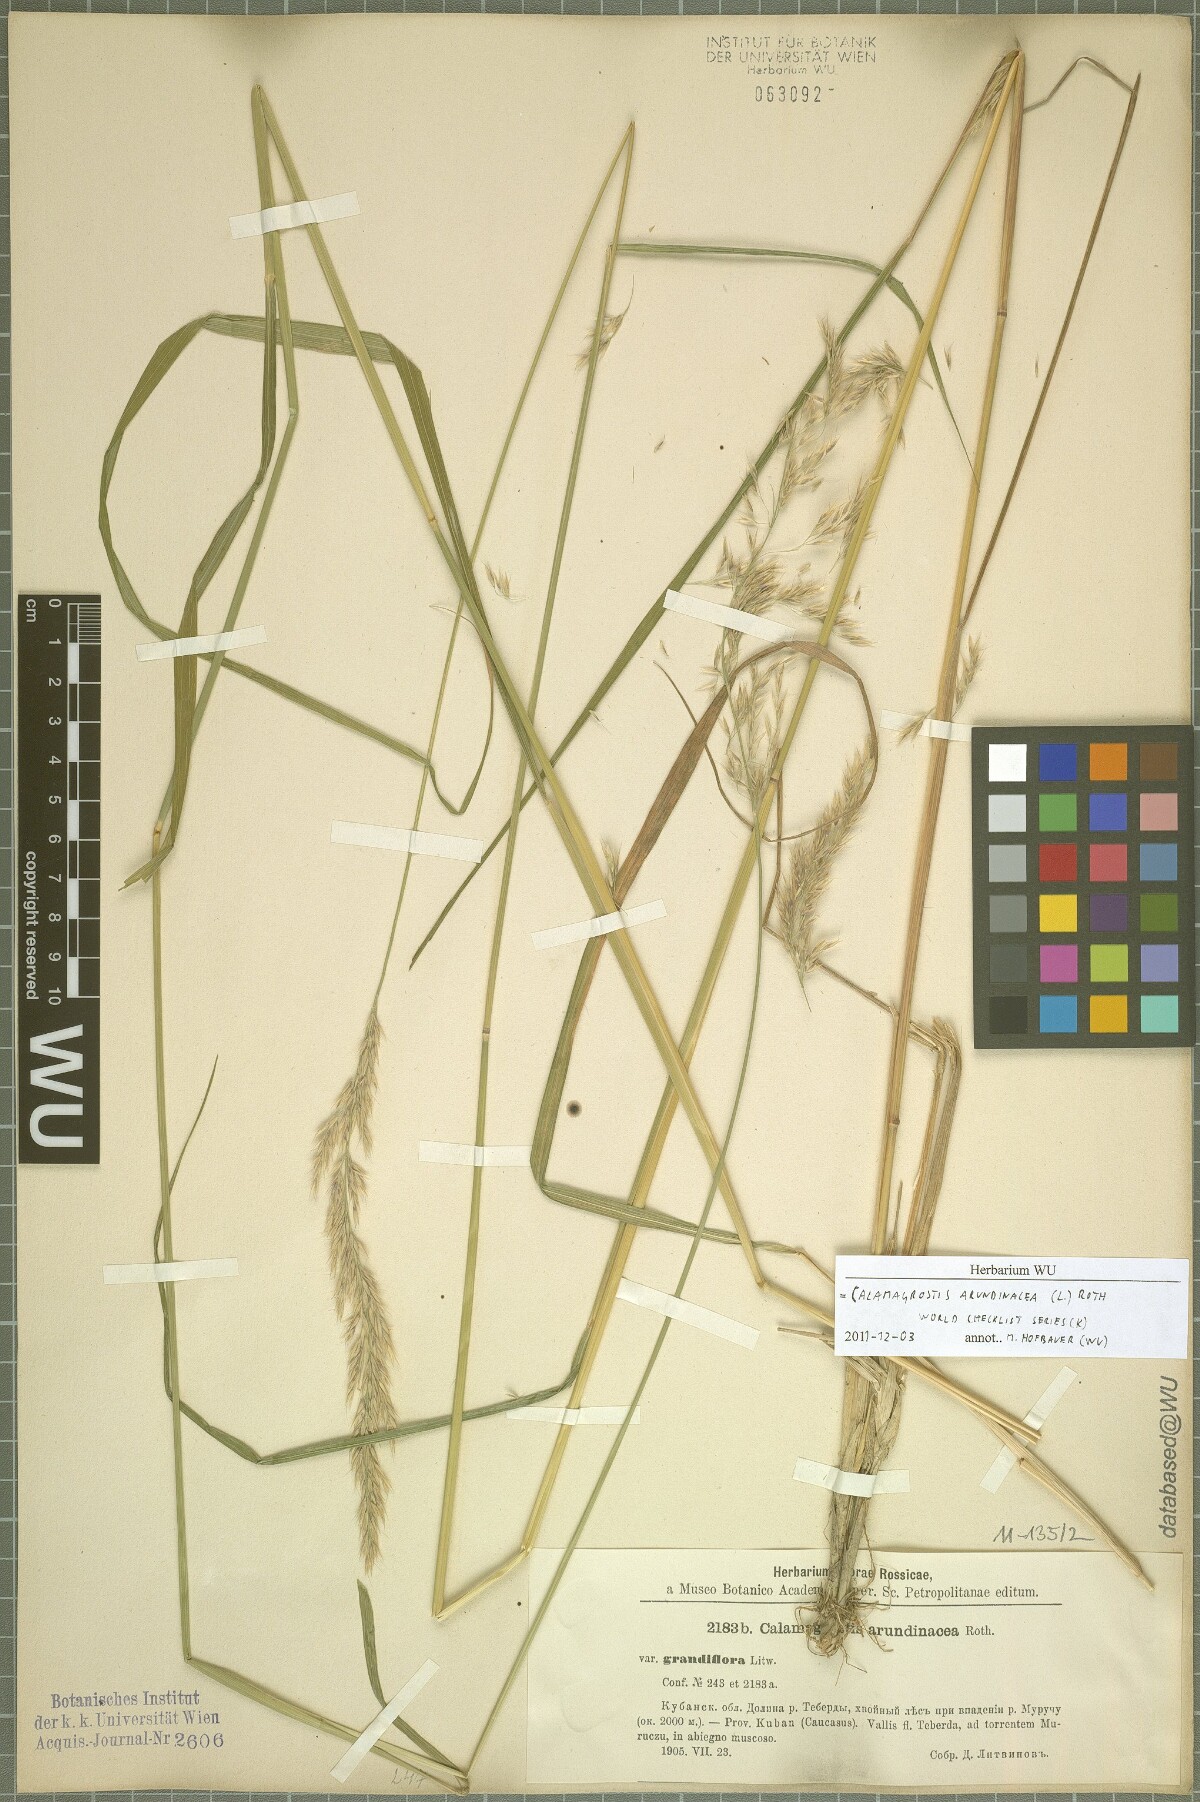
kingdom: Plantae
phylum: Tracheophyta
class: Liliopsida
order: Poales
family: Poaceae
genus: Calamagrostis
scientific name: Calamagrostis arundinacea
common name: Metskastik
